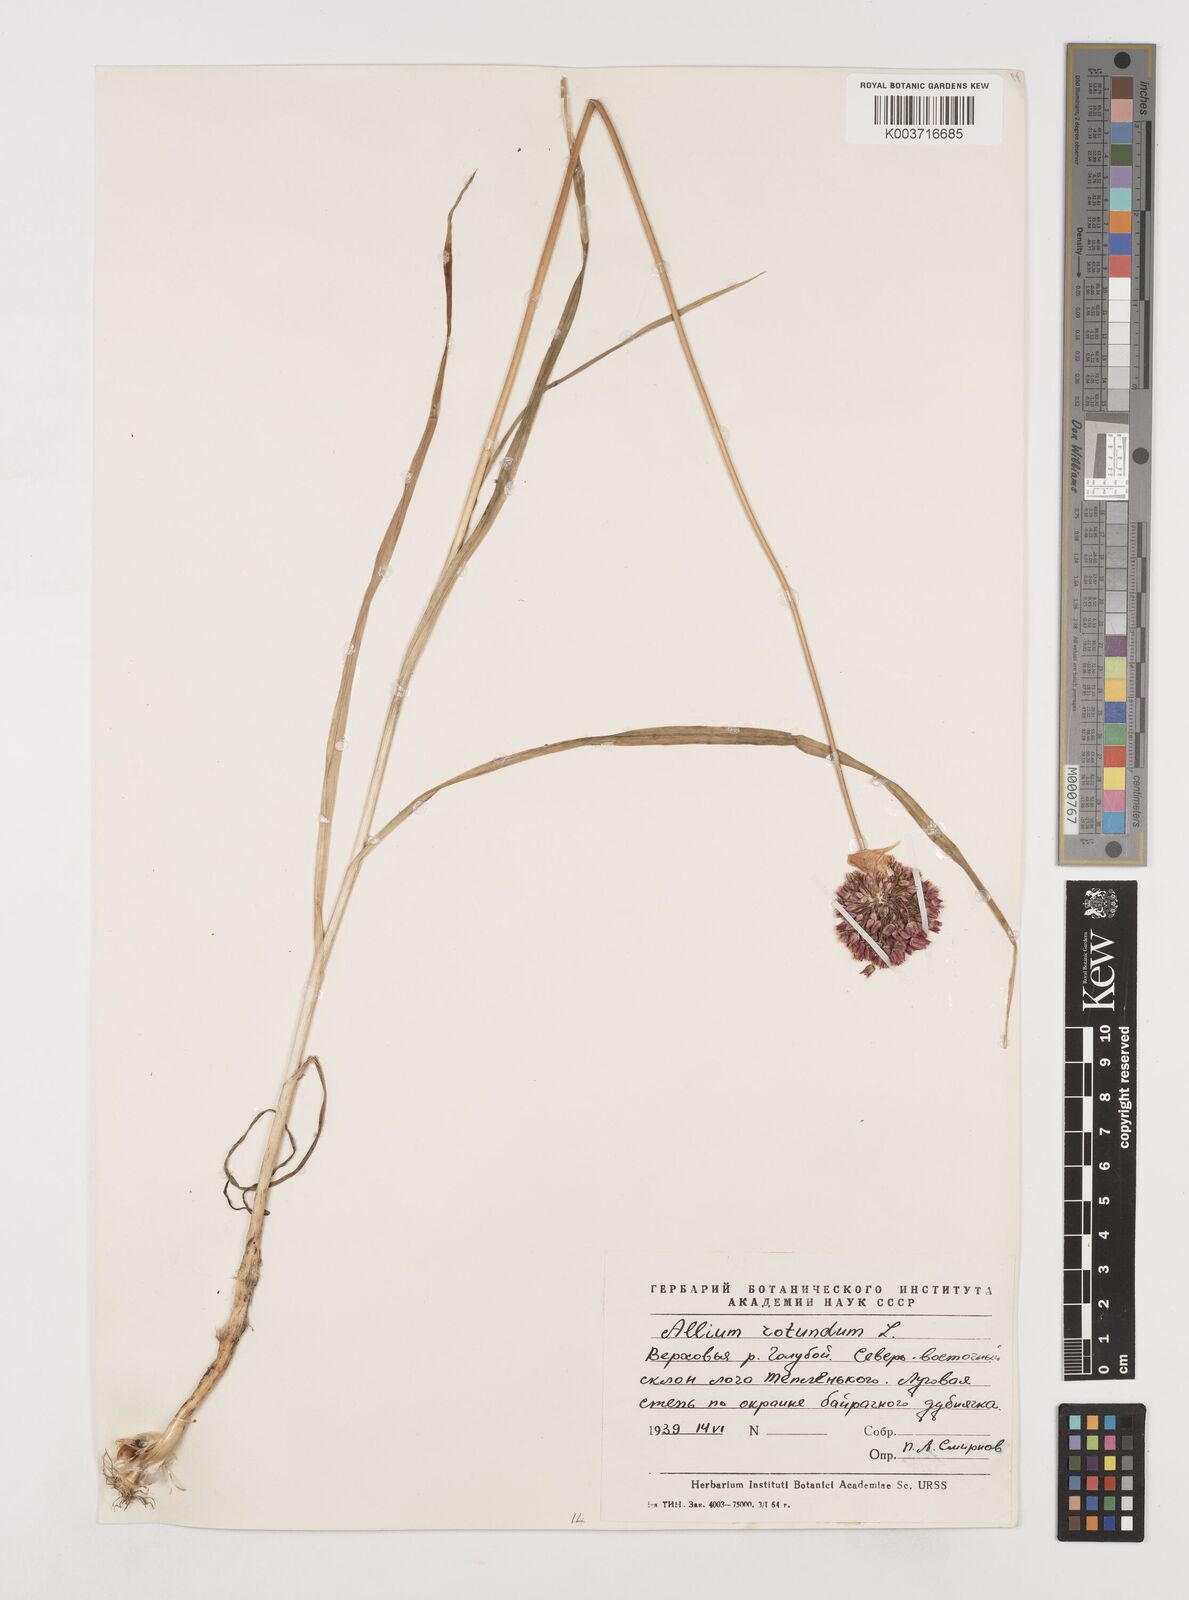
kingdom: Plantae
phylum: Tracheophyta
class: Liliopsida
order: Asparagales
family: Amaryllidaceae
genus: Allium
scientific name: Allium rotundum
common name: Sand leek
